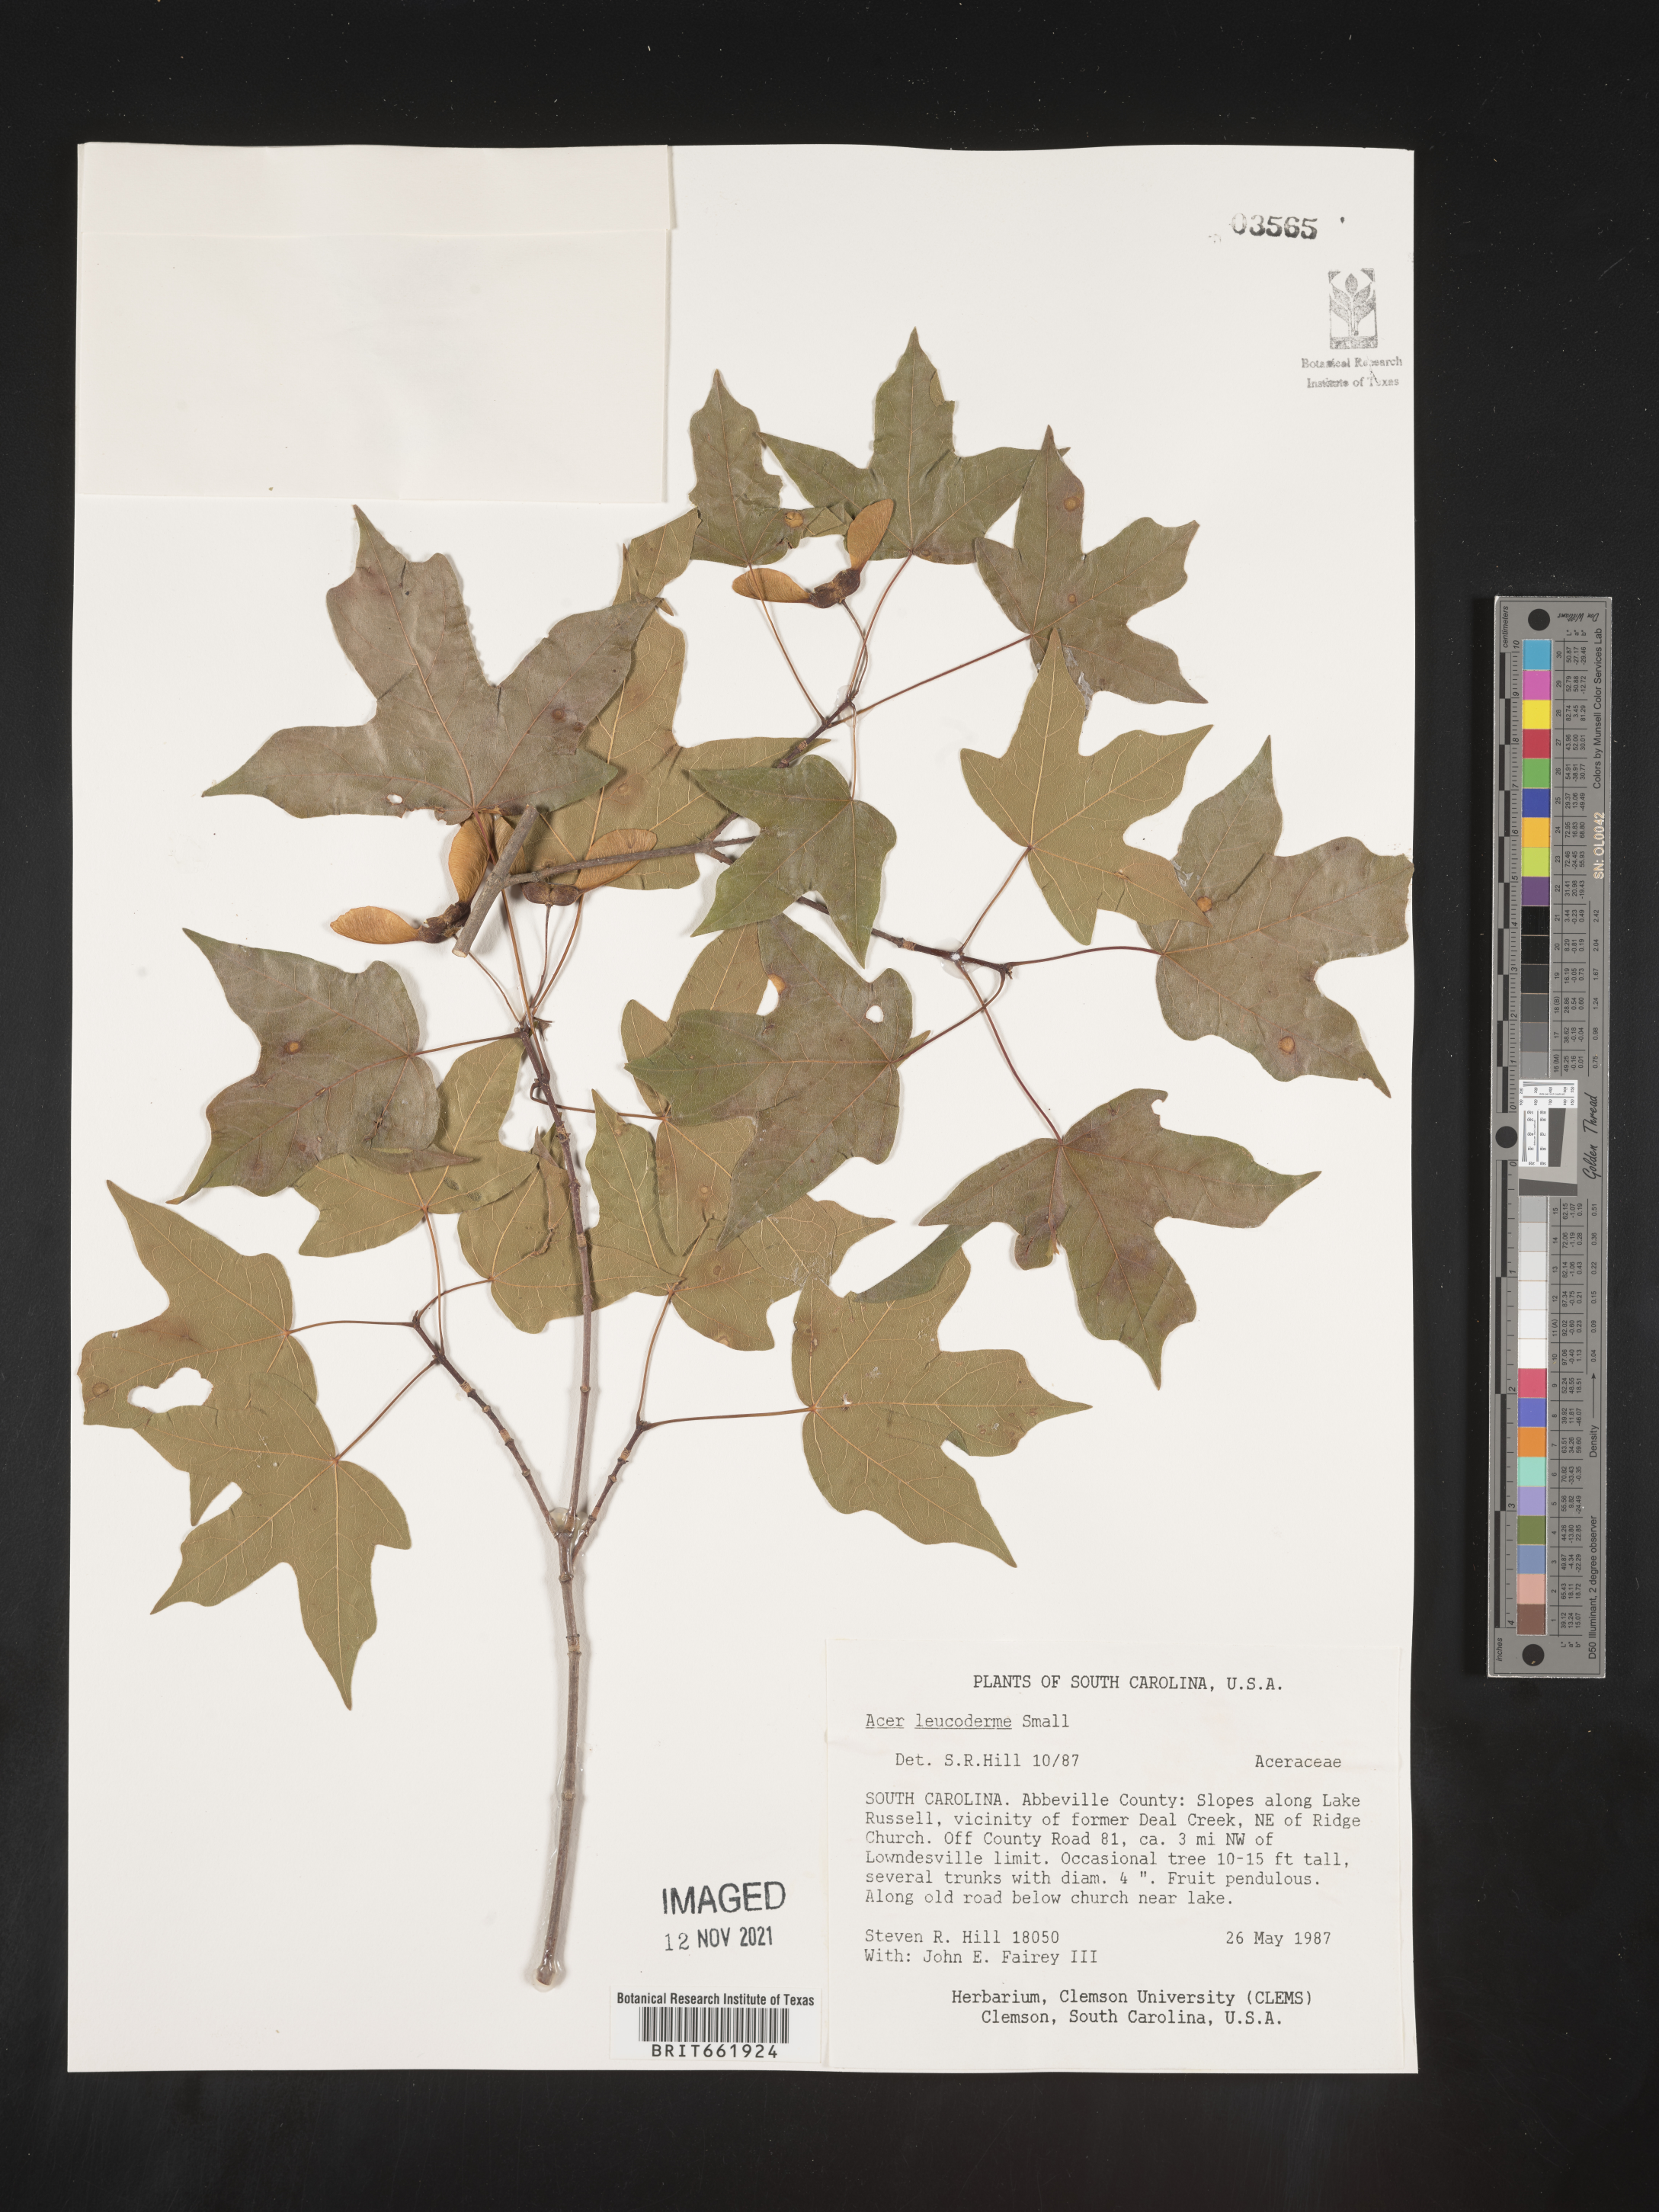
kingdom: Plantae
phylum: Tracheophyta
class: Magnoliopsida
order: Sapindales
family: Sapindaceae
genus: Acer
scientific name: Acer leucoderme
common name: Chalk maple
